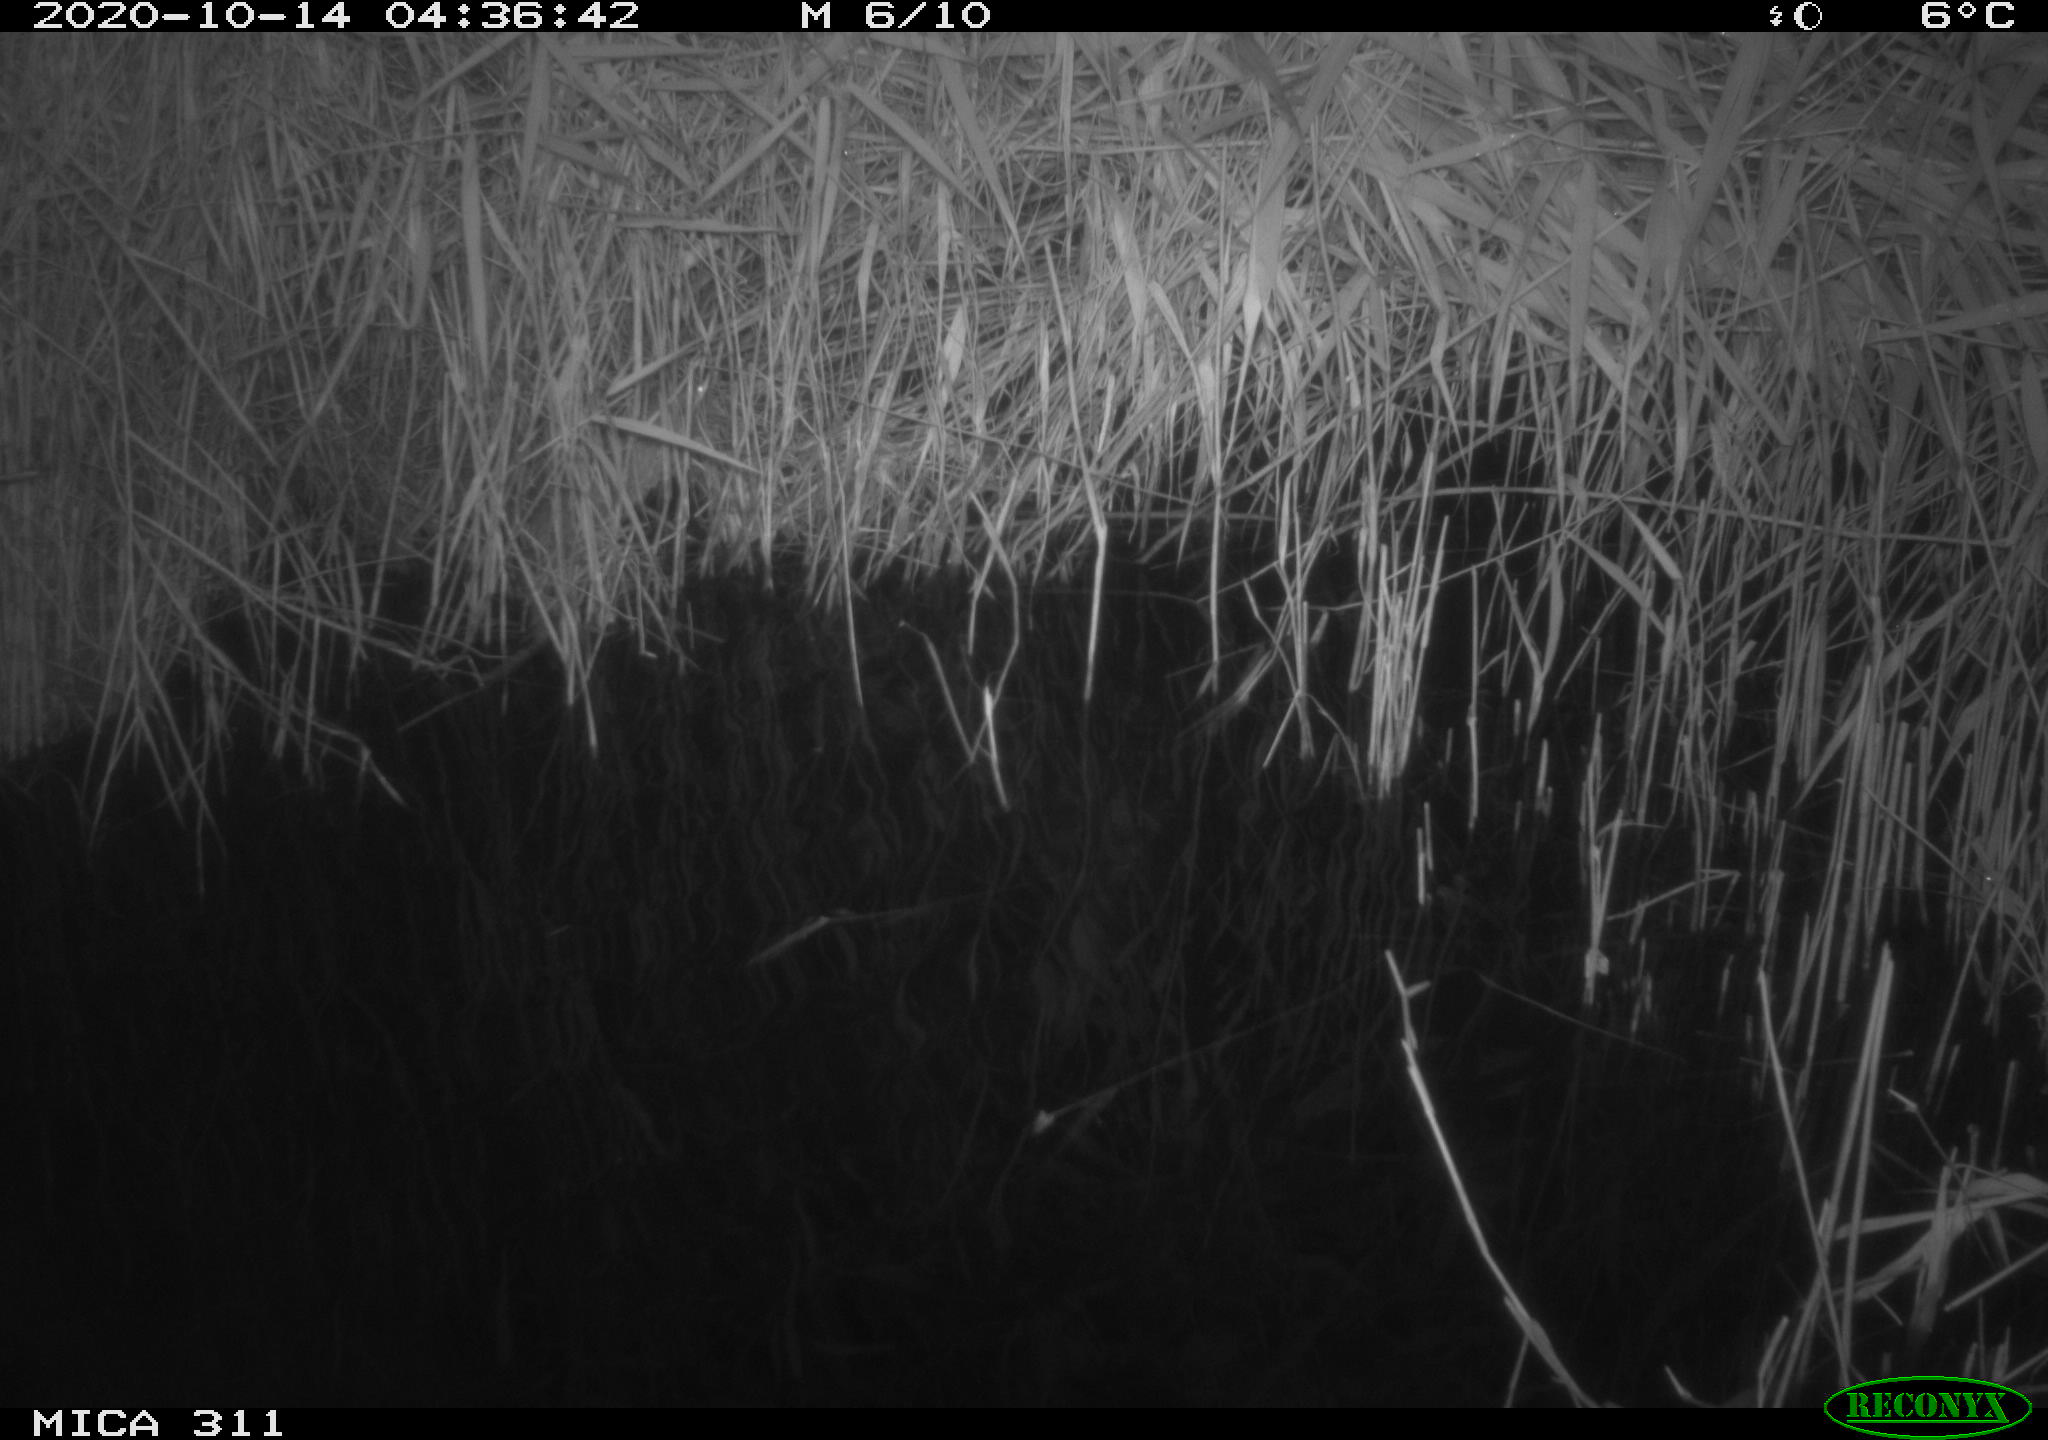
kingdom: Animalia
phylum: Chordata
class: Mammalia
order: Rodentia
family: Muridae
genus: Rattus
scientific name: Rattus norvegicus
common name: Brown rat
